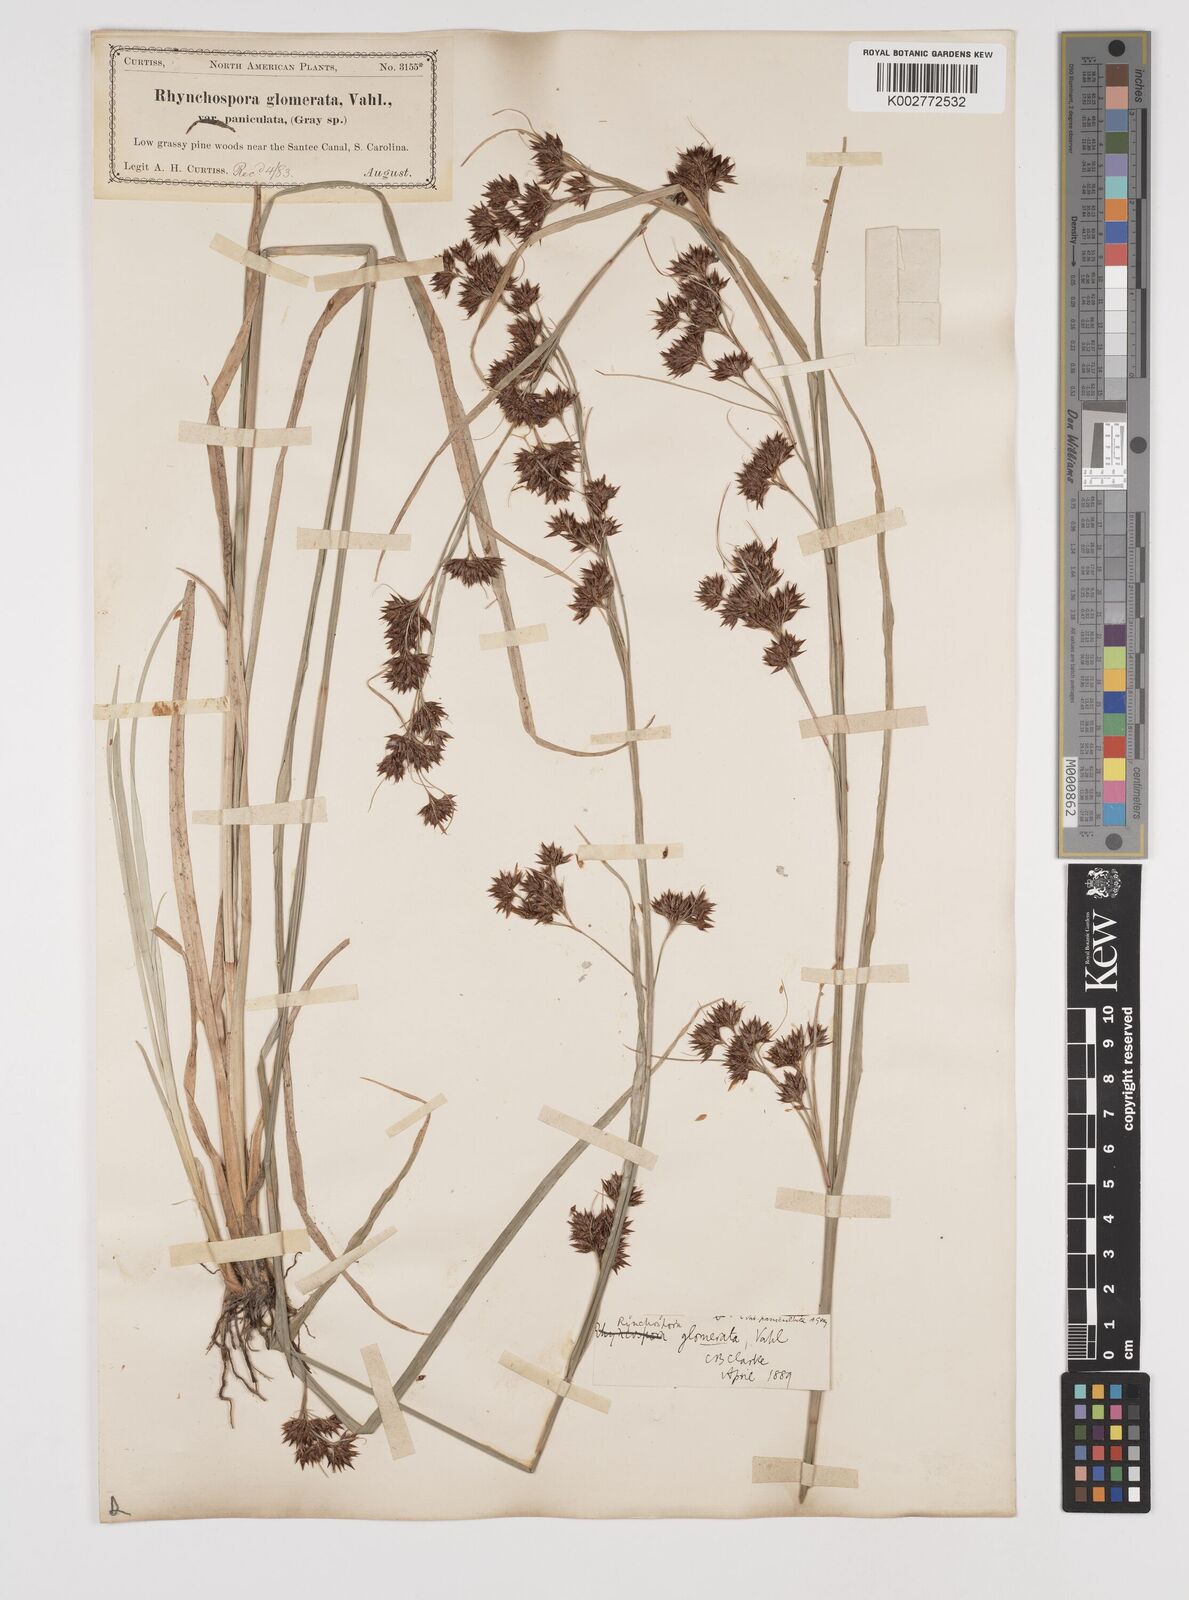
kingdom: Plantae
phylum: Tracheophyta
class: Liliopsida
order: Poales
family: Cyperaceae
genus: Rhynchospora
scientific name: Rhynchospora glomerata
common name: Cluster beak sedge
